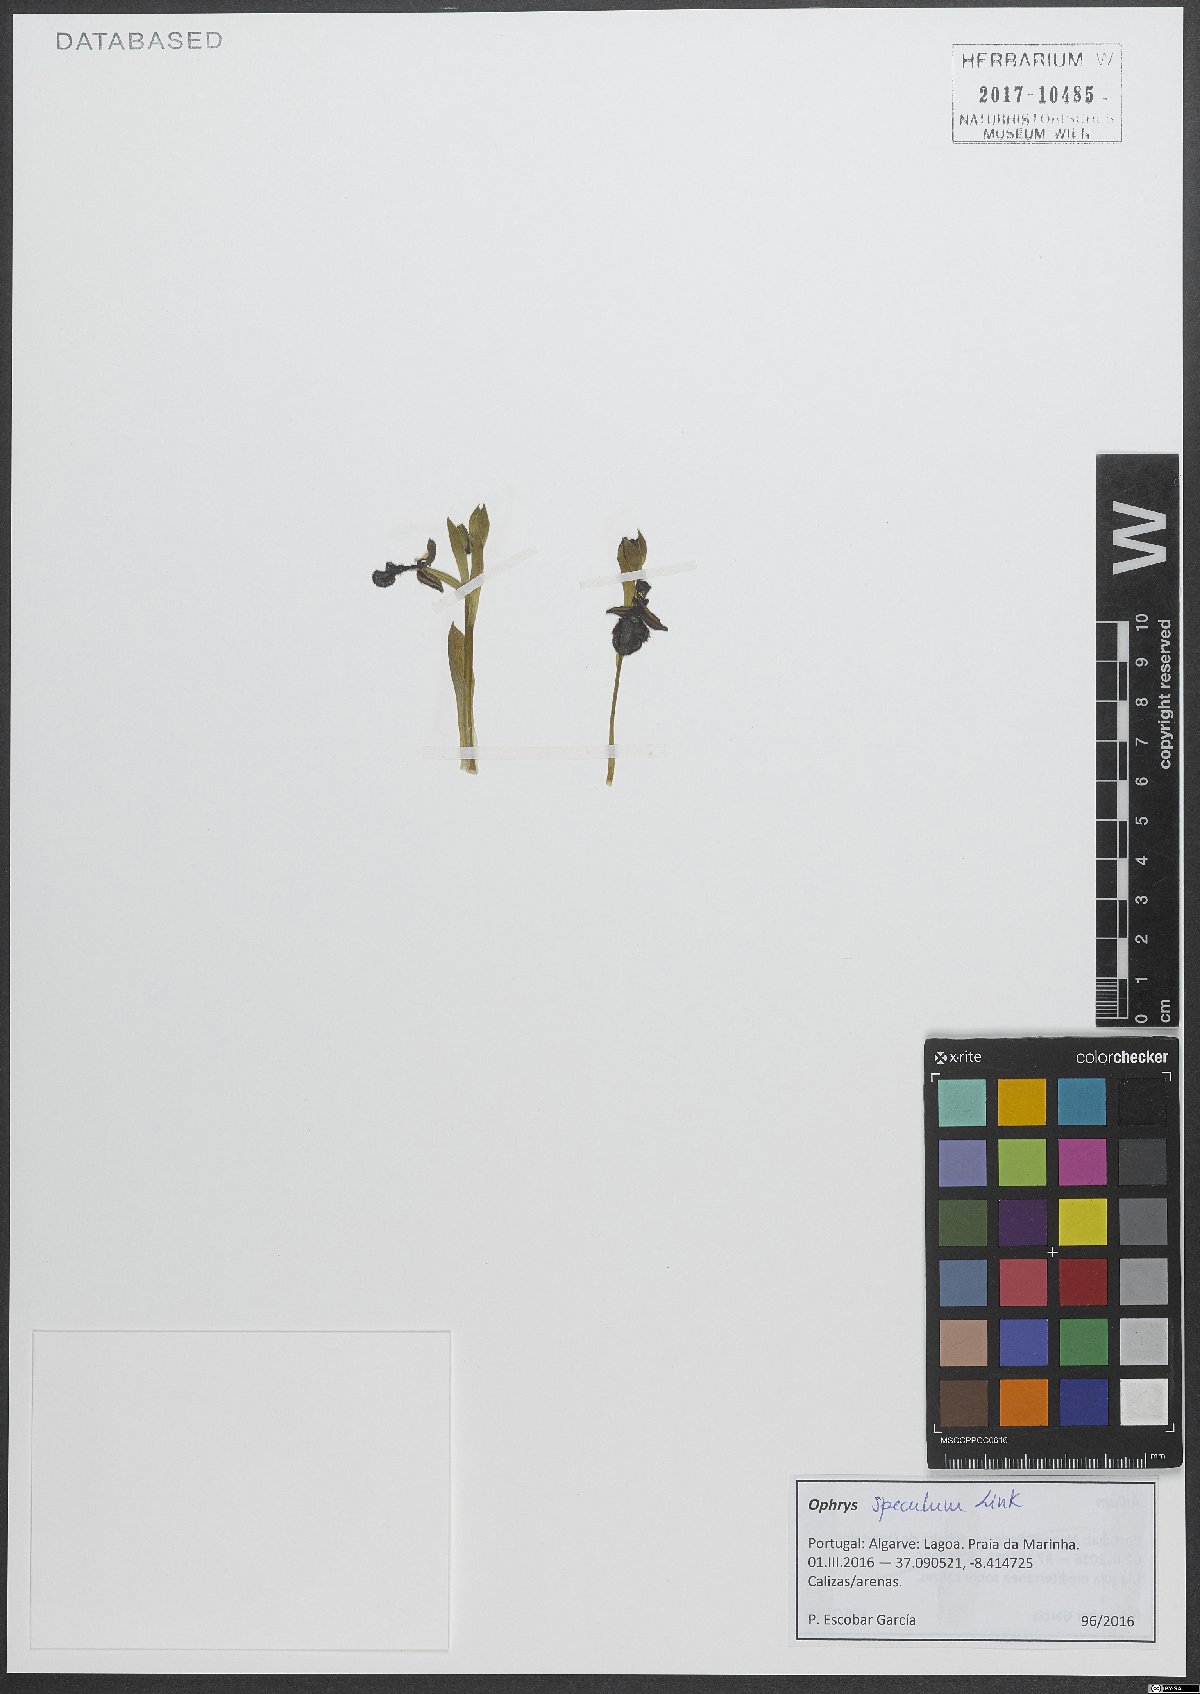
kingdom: Plantae
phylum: Tracheophyta
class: Liliopsida
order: Asparagales
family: Orchidaceae
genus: Ophrys
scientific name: Ophrys speculum
